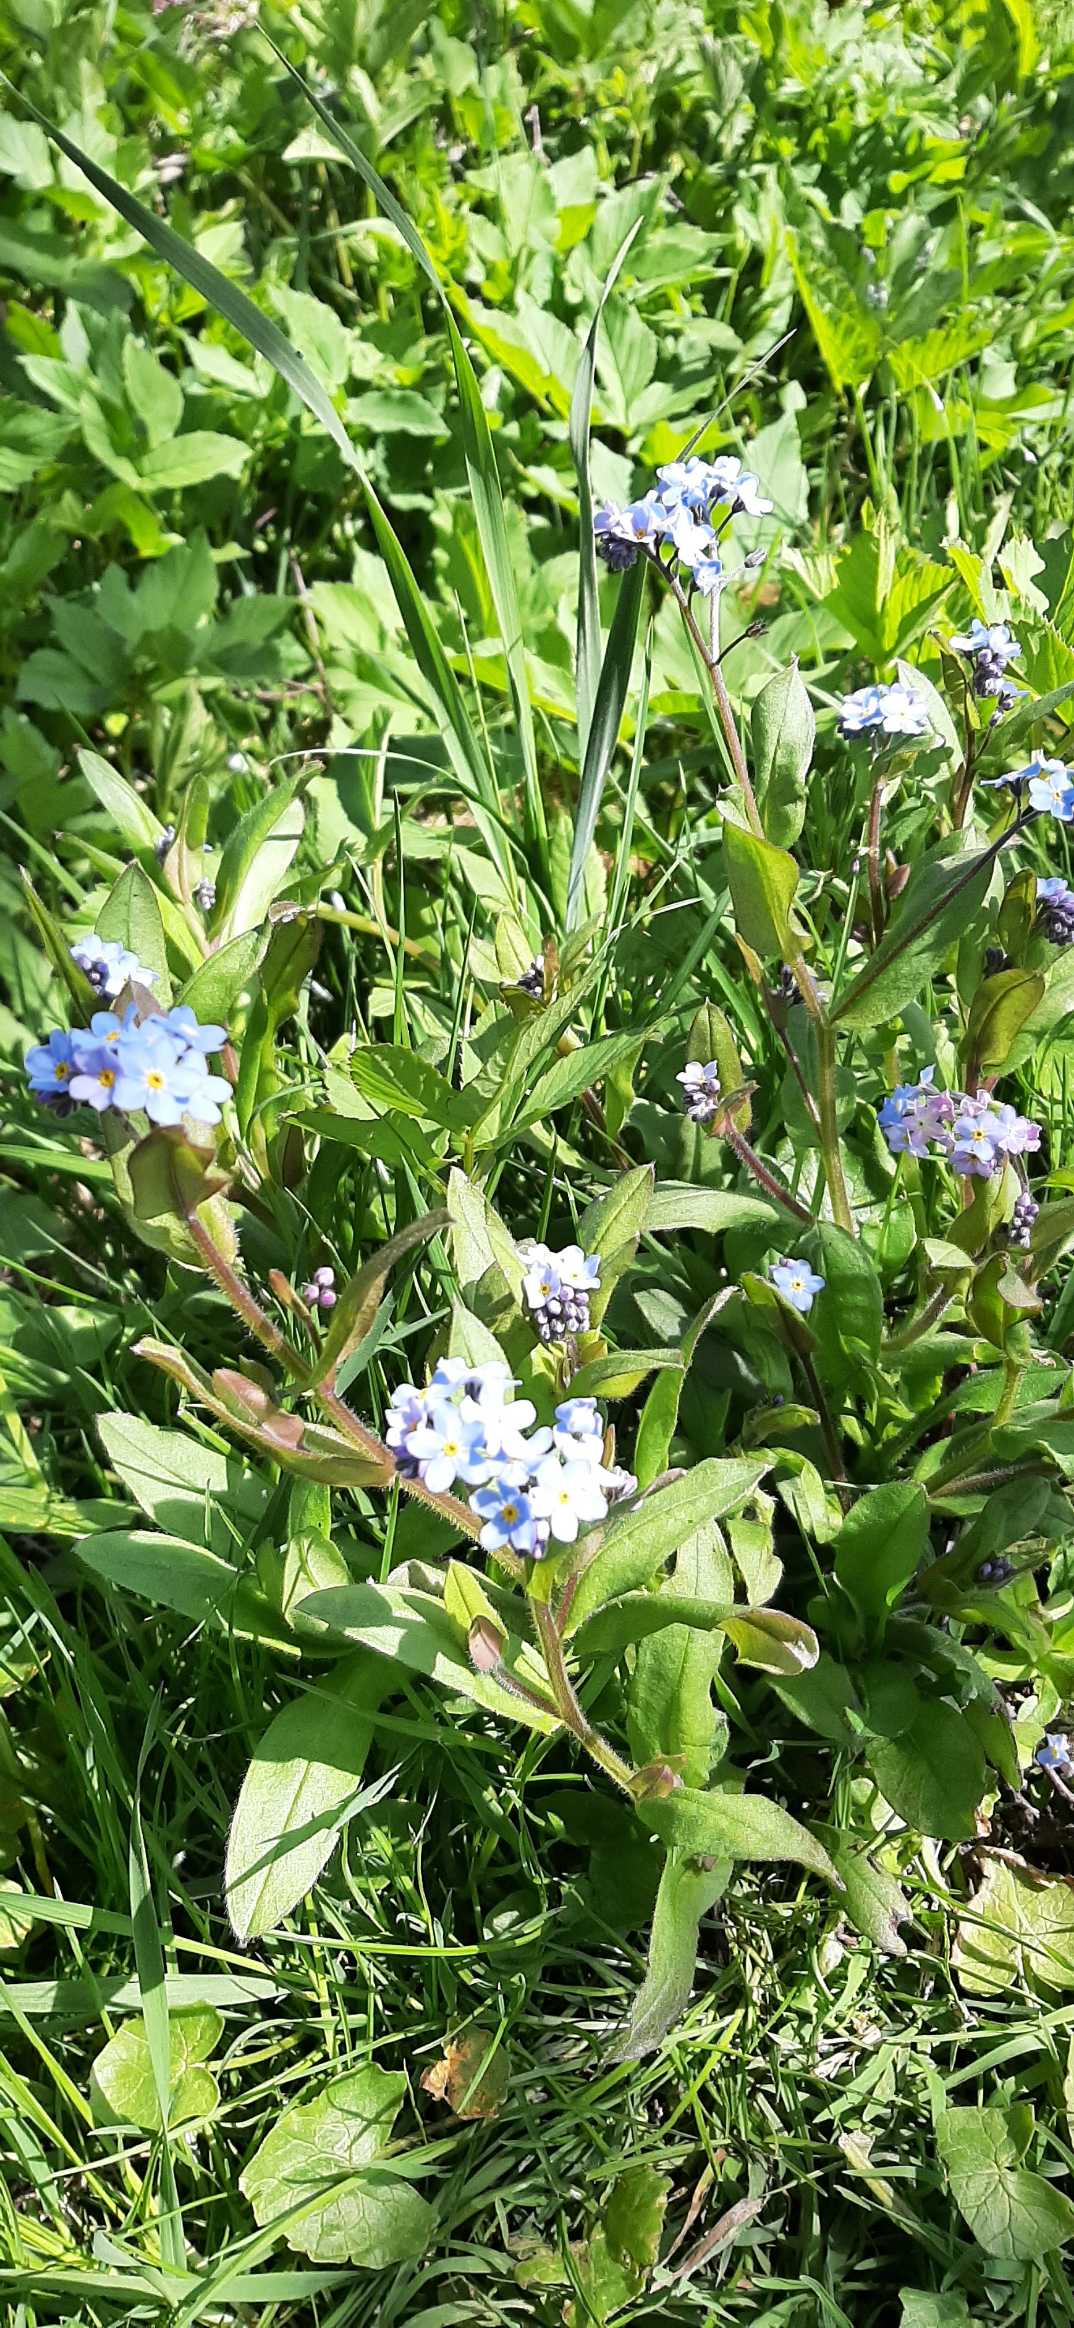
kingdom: Plantae
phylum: Tracheophyta
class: Magnoliopsida
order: Boraginales
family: Boraginaceae
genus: Myosotis
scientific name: Myosotis sylvatica
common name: Skov-forglemmigej
